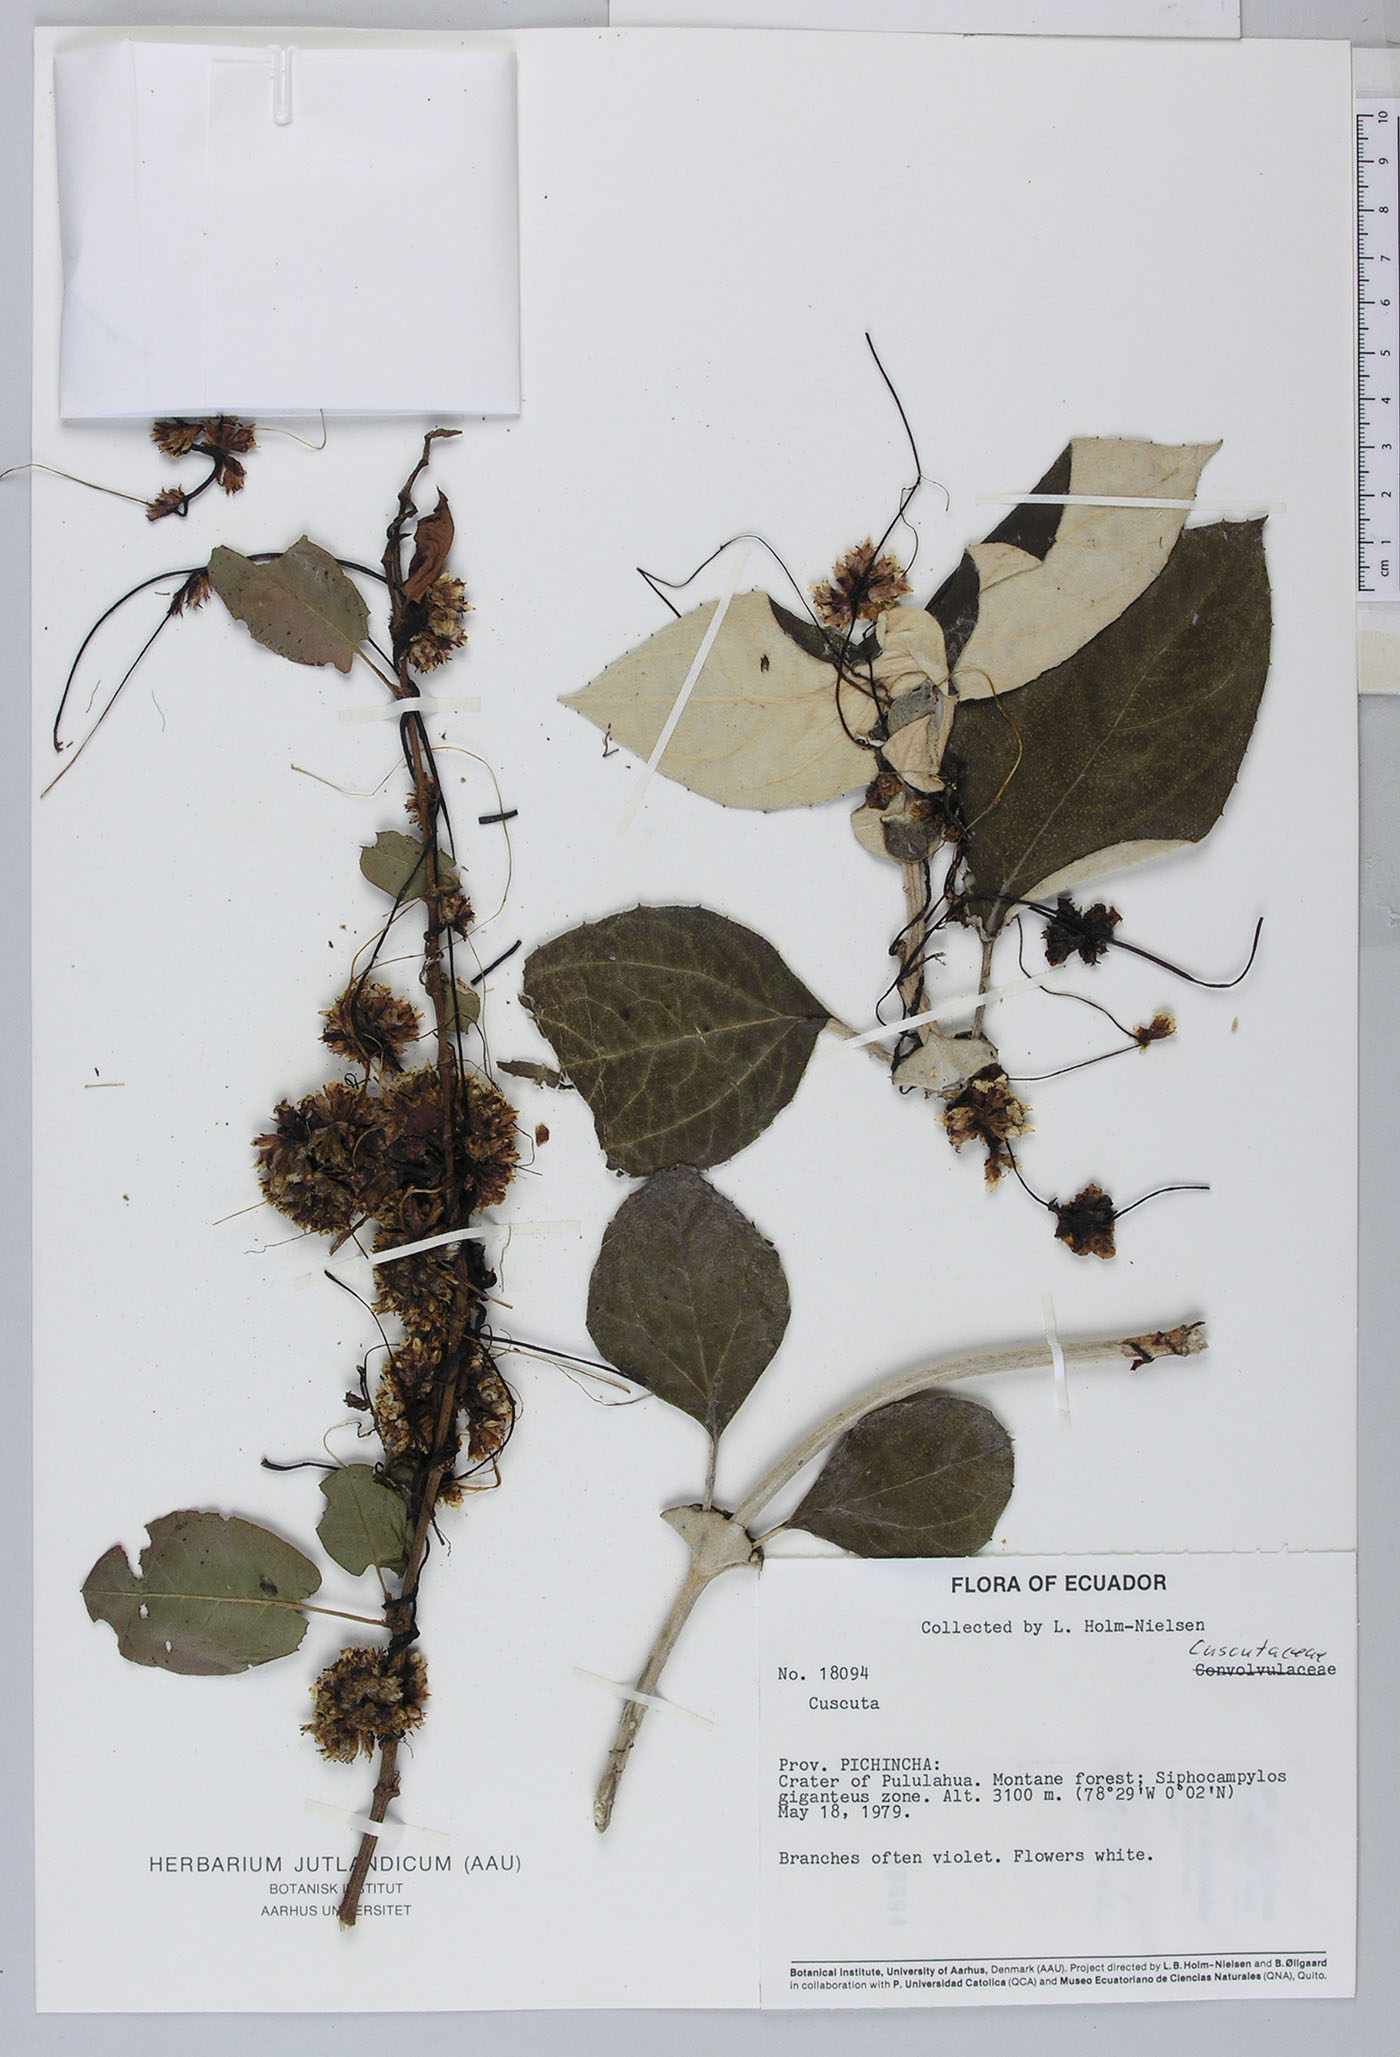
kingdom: Plantae
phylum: Tracheophyta
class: Magnoliopsida
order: Solanales
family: Convolvulaceae
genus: Cuscuta
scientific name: Cuscuta foetida
